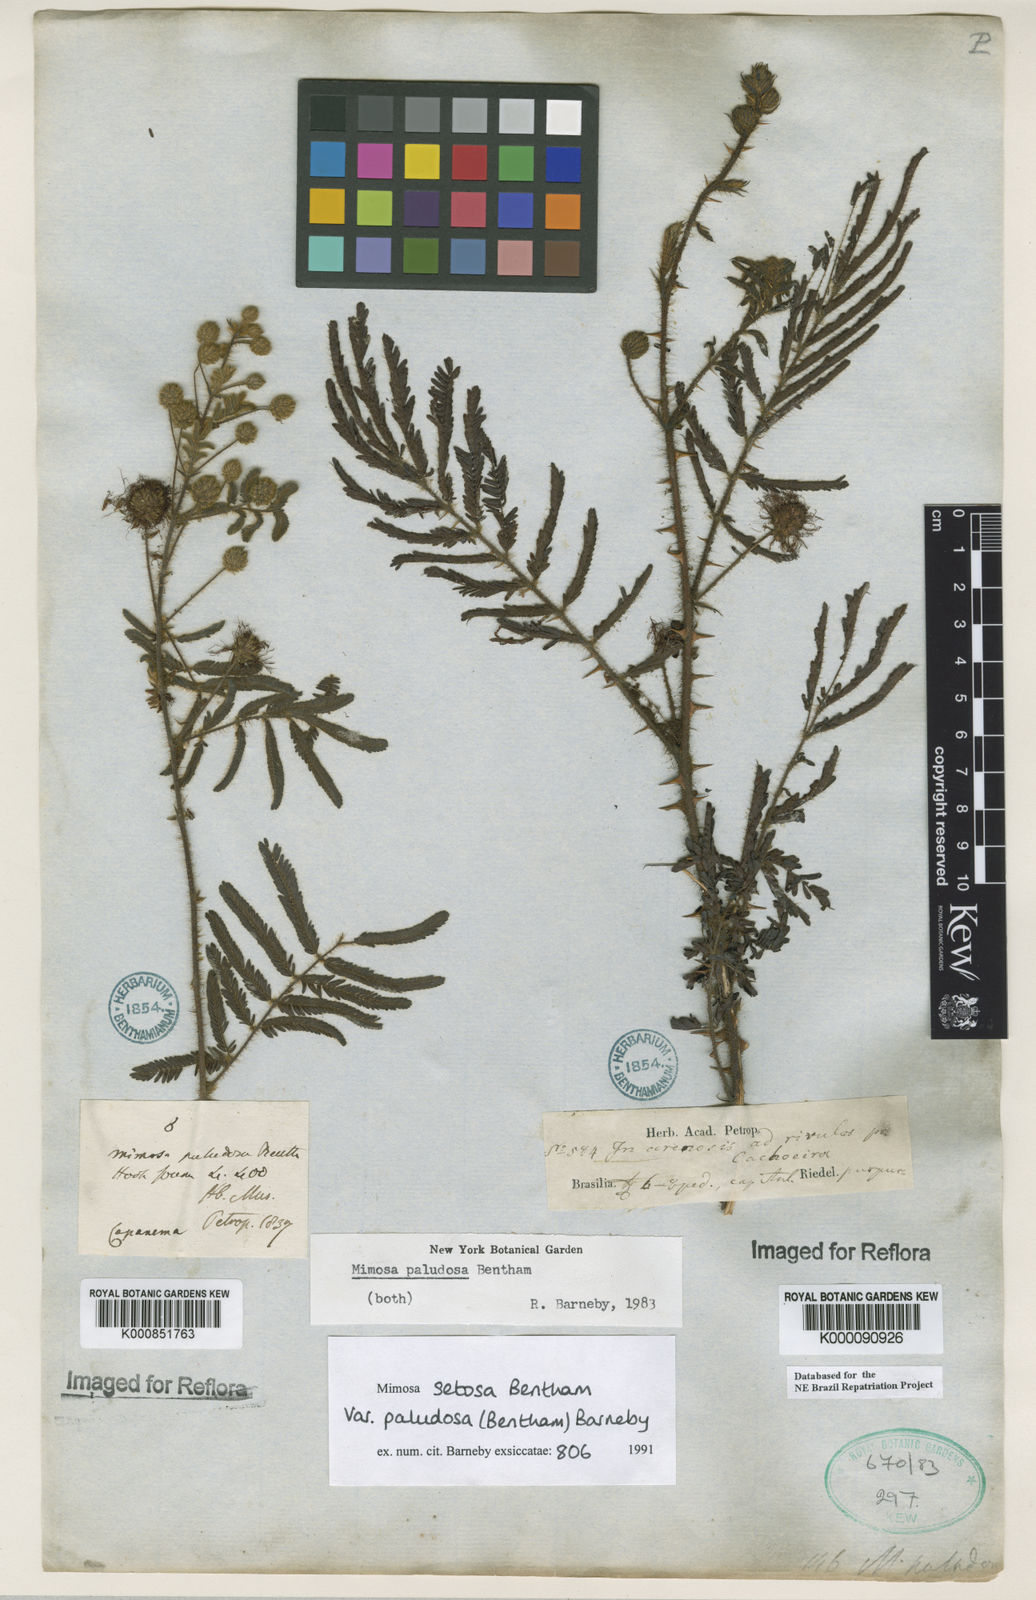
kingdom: Plantae
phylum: Tracheophyta
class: Magnoliopsida
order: Fabales
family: Fabaceae
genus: Mimosa
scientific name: Mimosa paludosa
